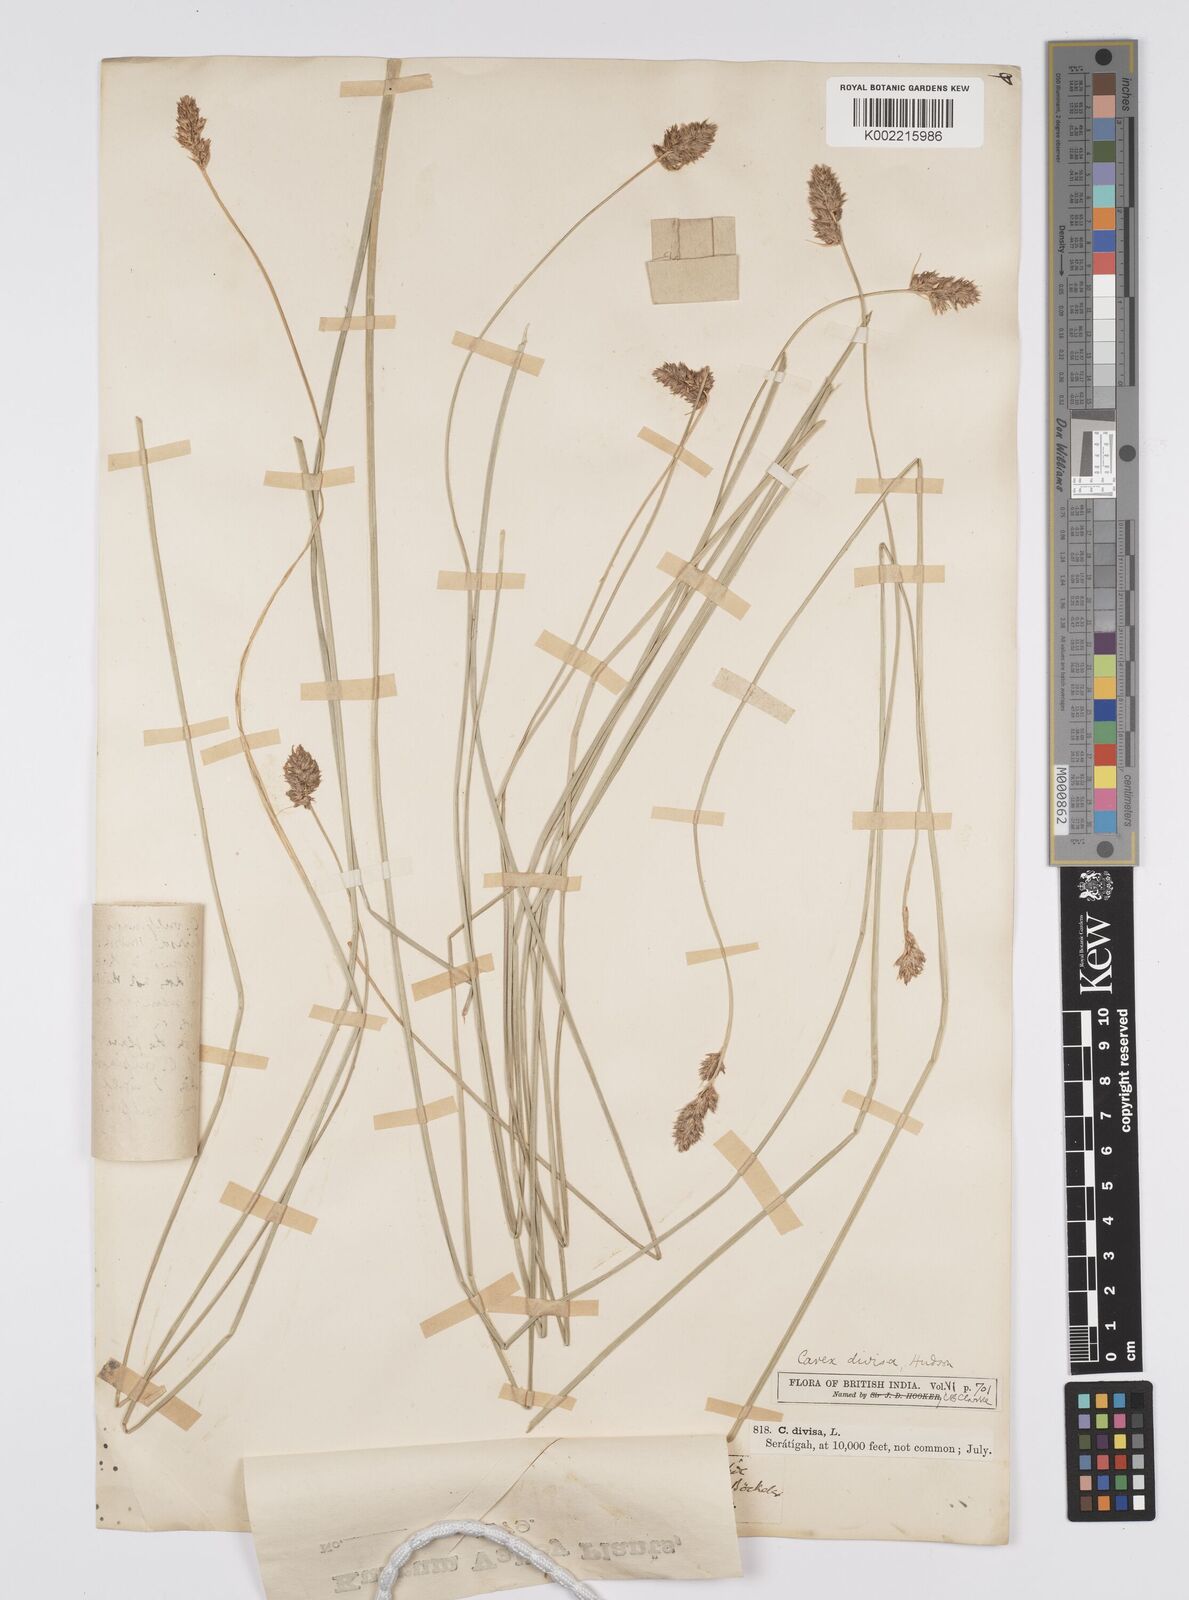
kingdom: Plantae
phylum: Tracheophyta
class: Liliopsida
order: Poales
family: Cyperaceae
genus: Carex
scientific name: Carex vulpinaris
